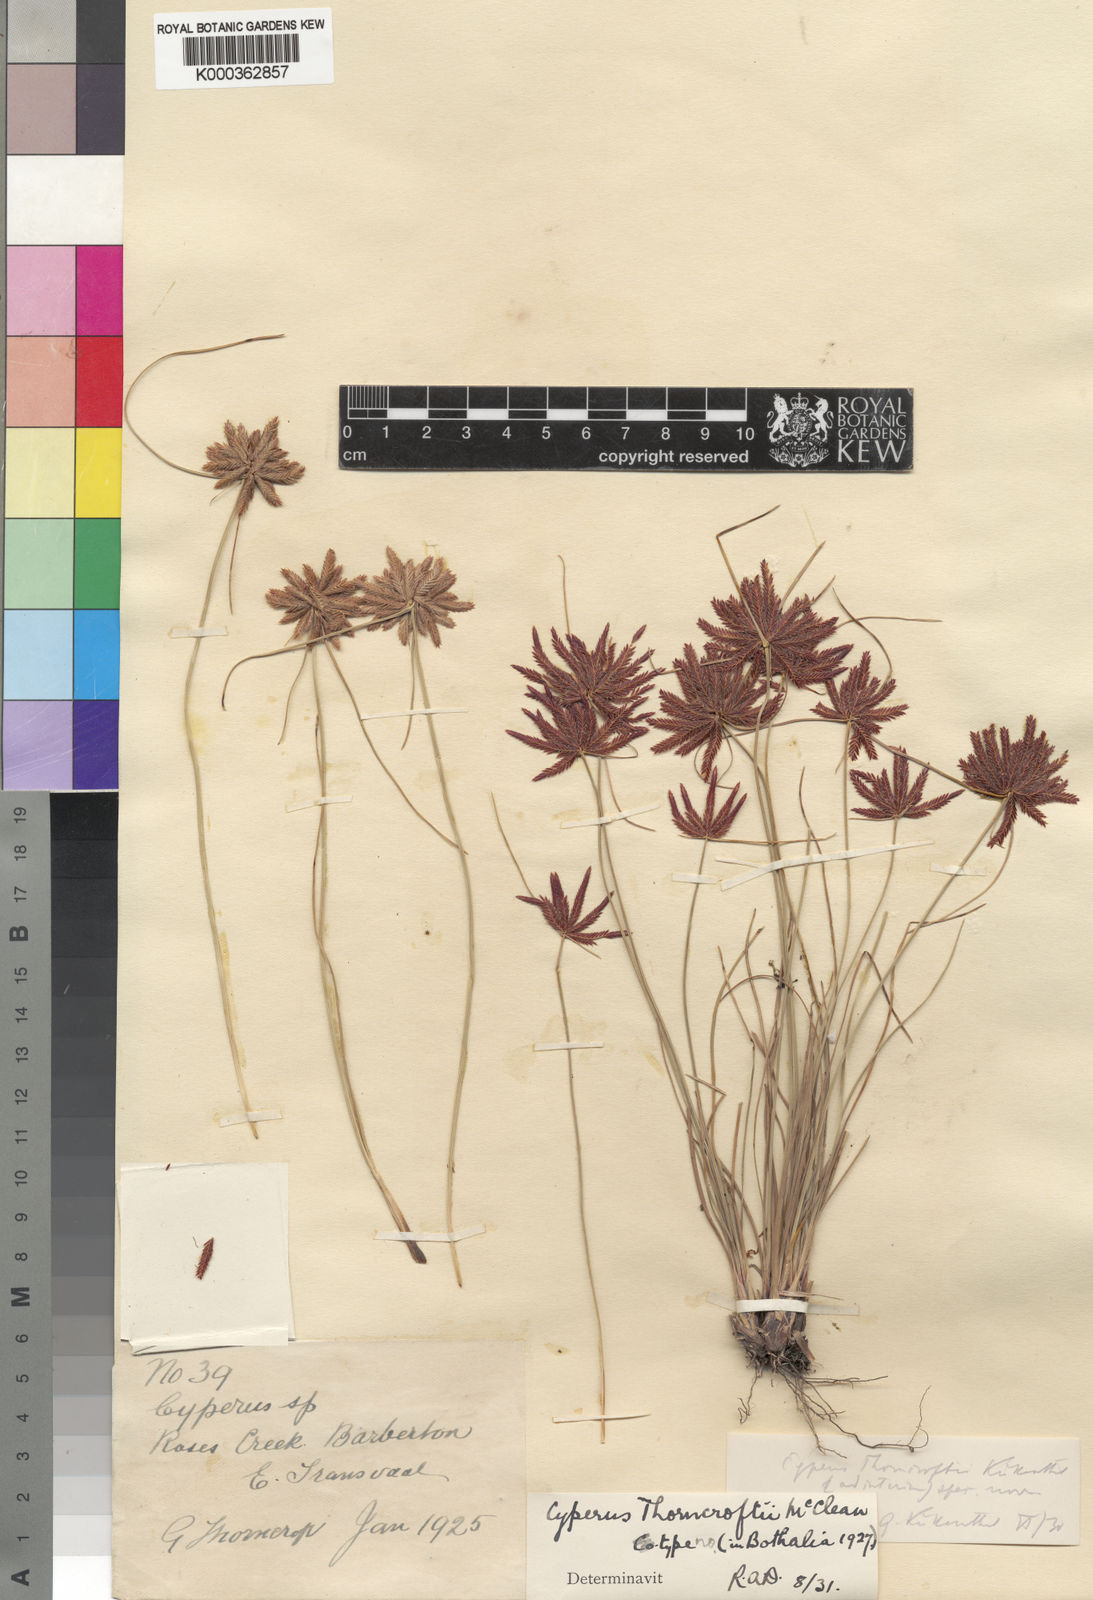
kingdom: Plantae
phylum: Tracheophyta
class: Liliopsida
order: Poales
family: Cyperaceae
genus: Cyperus
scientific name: Cyperus
